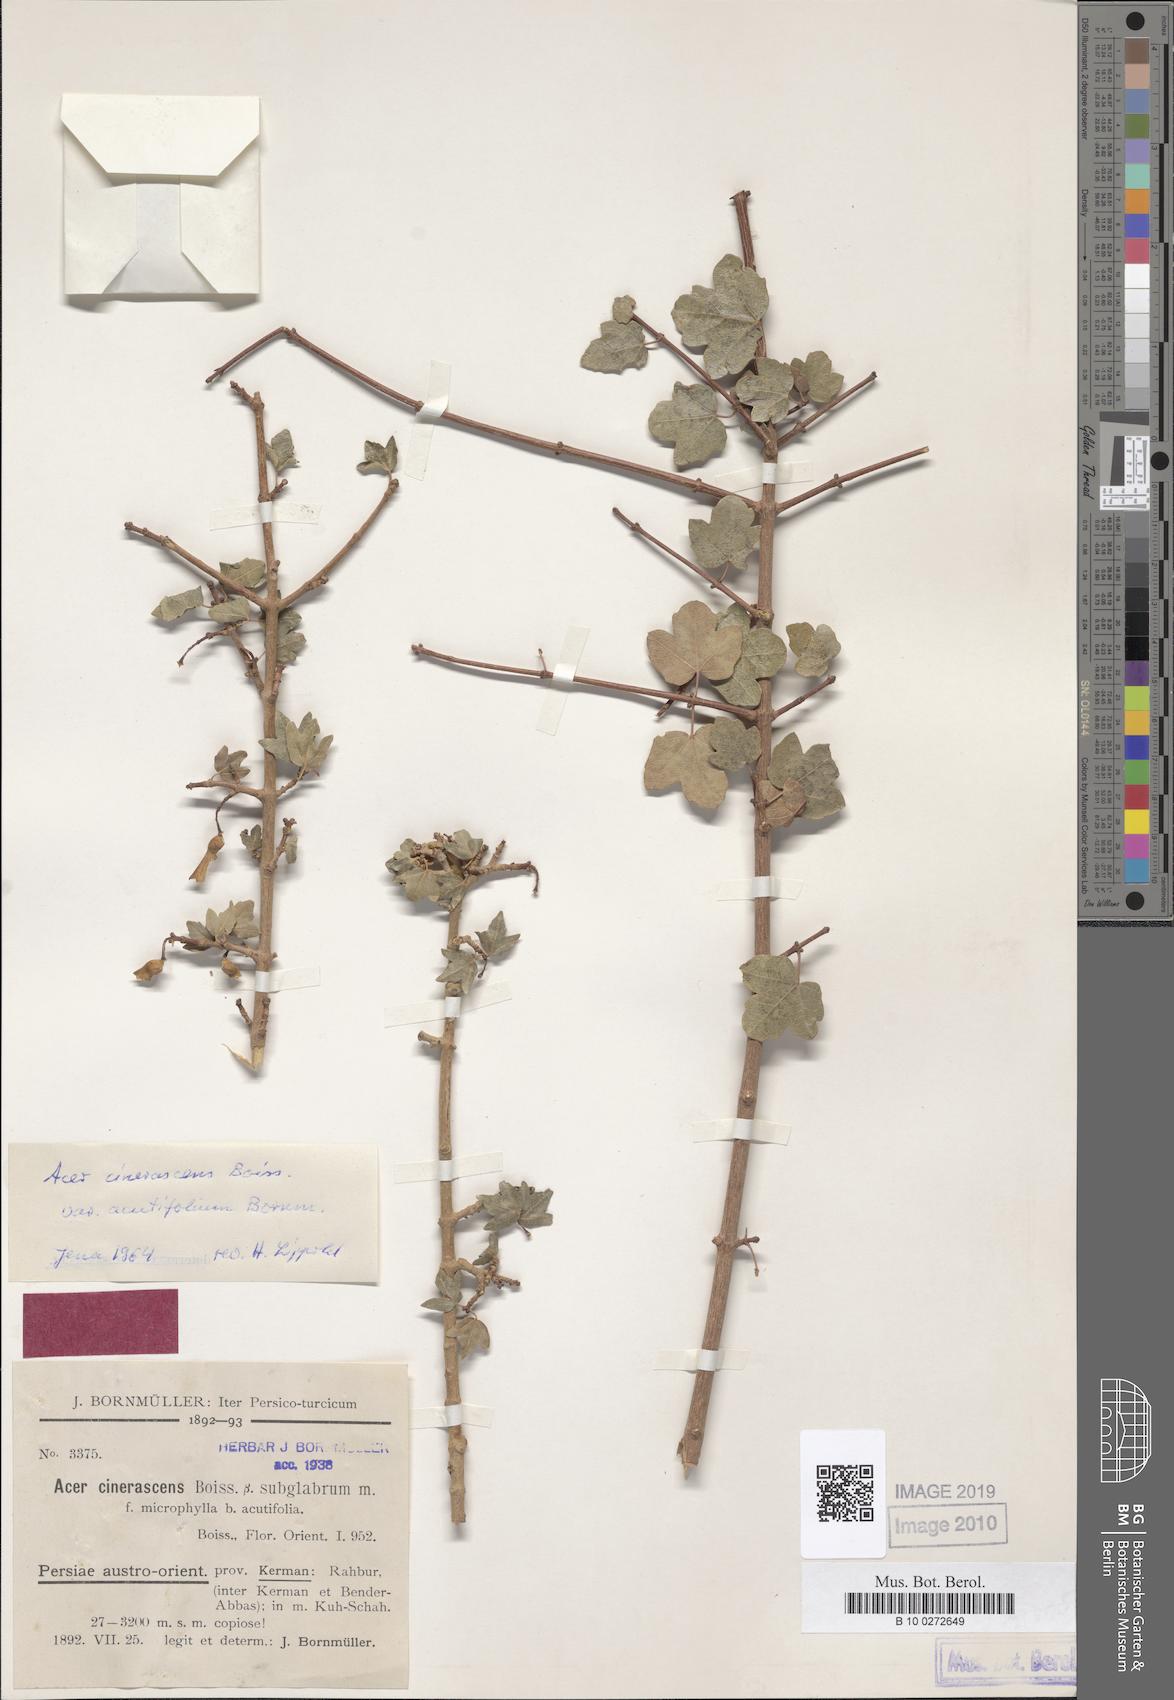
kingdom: Plantae
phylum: Tracheophyta
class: Magnoliopsida
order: Sapindales
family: Sapindaceae
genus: Acer
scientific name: Acer monspessulanum
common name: Montpellier maple
